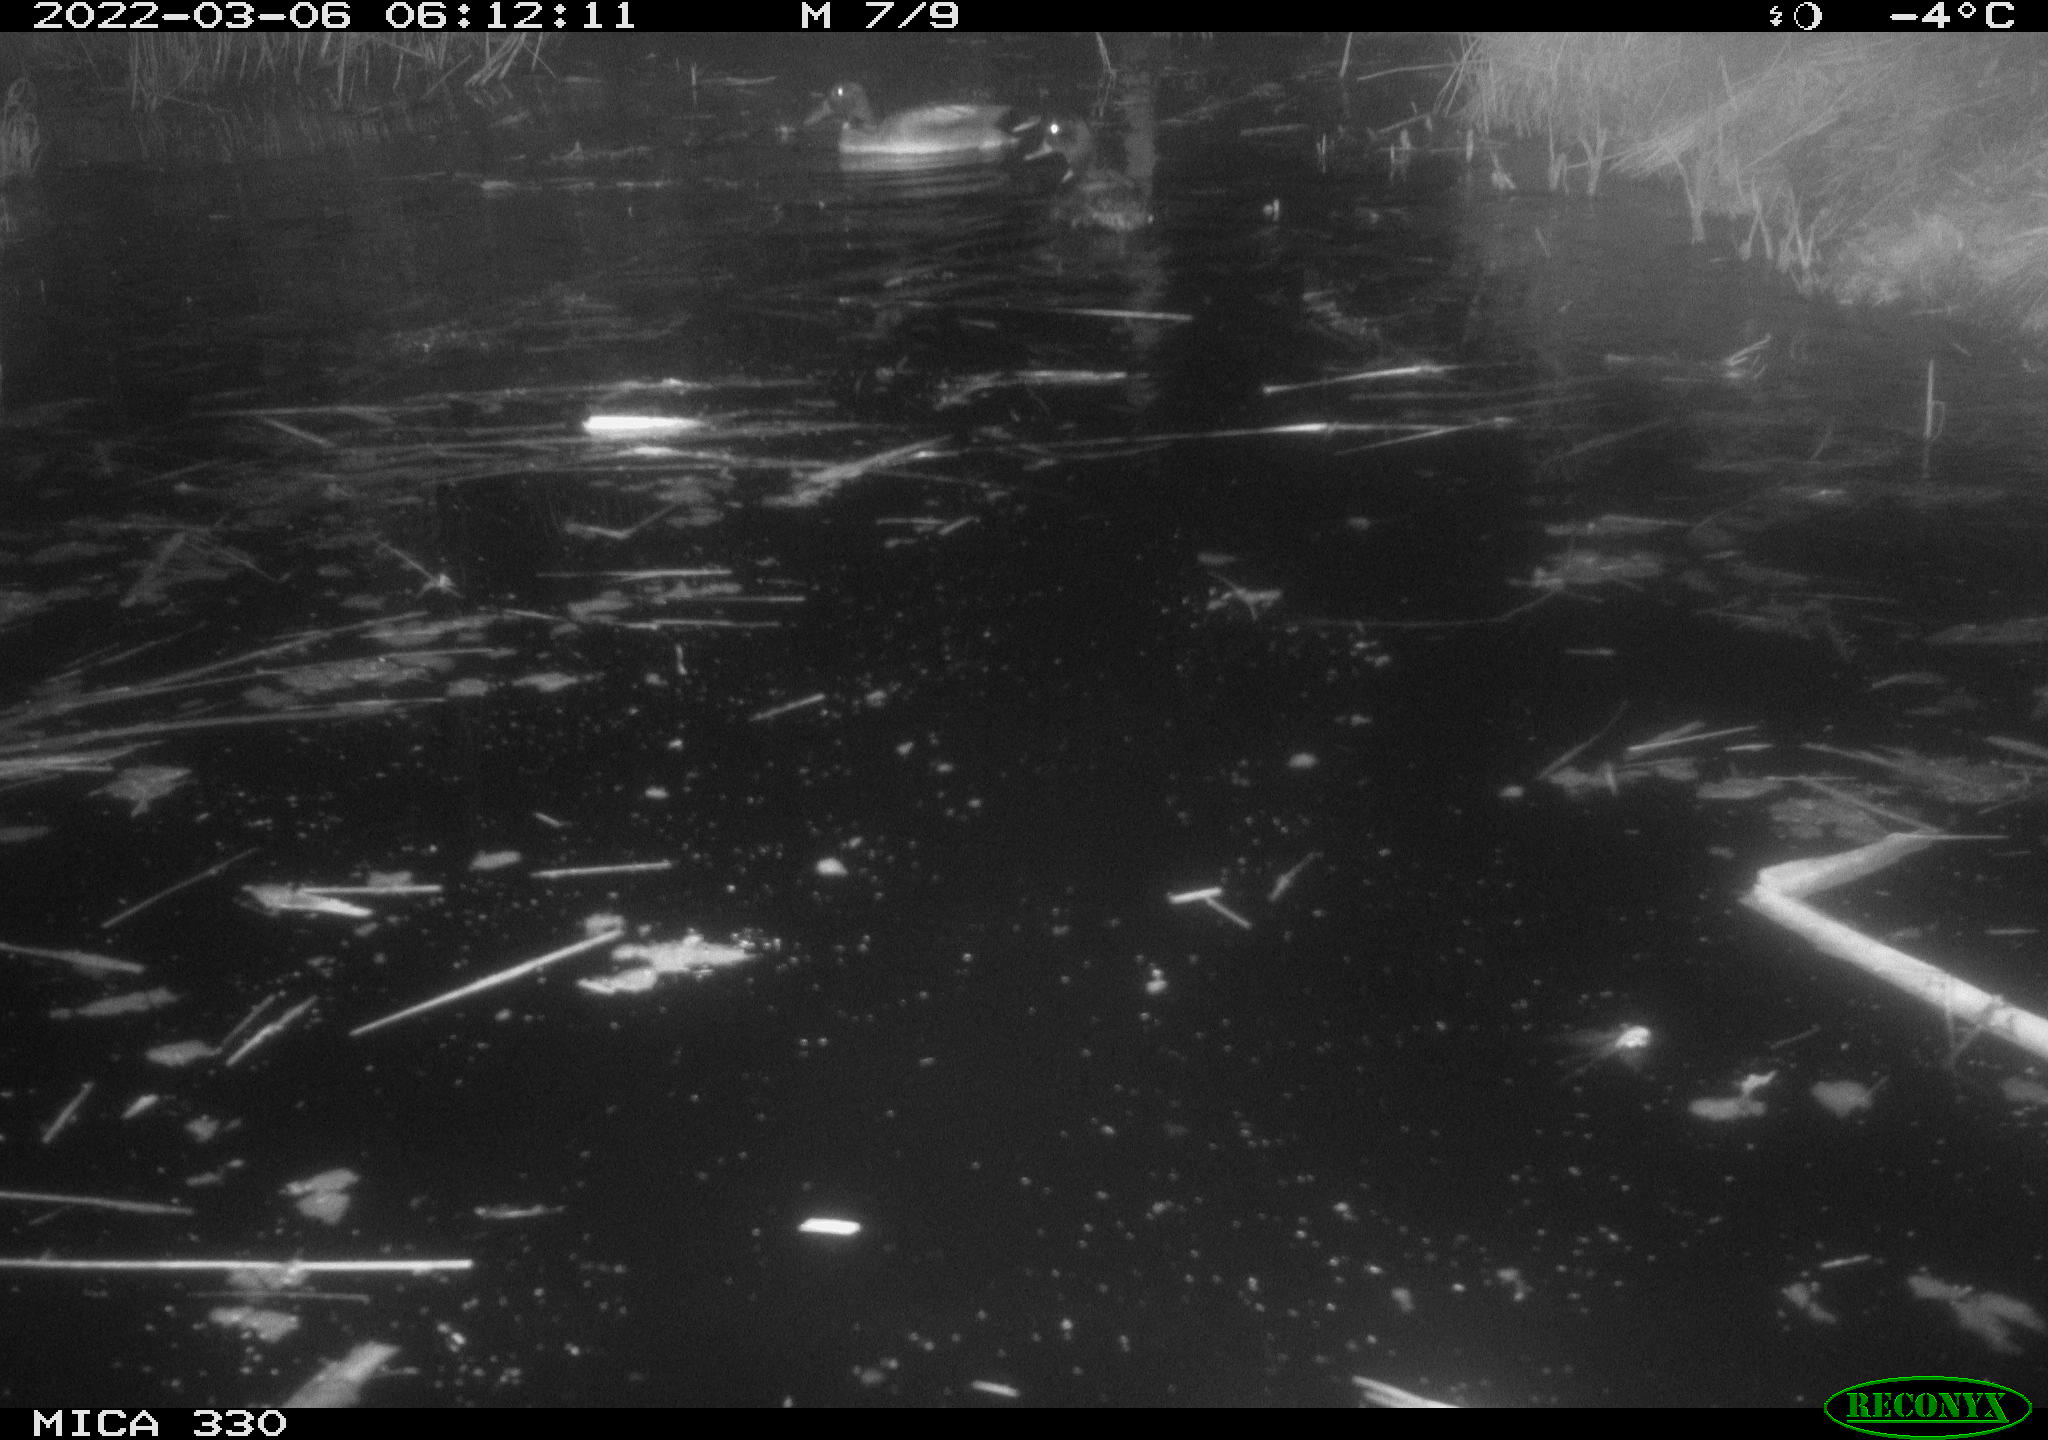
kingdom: Animalia
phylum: Chordata
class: Aves
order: Anseriformes
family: Anatidae
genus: Anas
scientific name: Anas platyrhynchos
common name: Mallard
